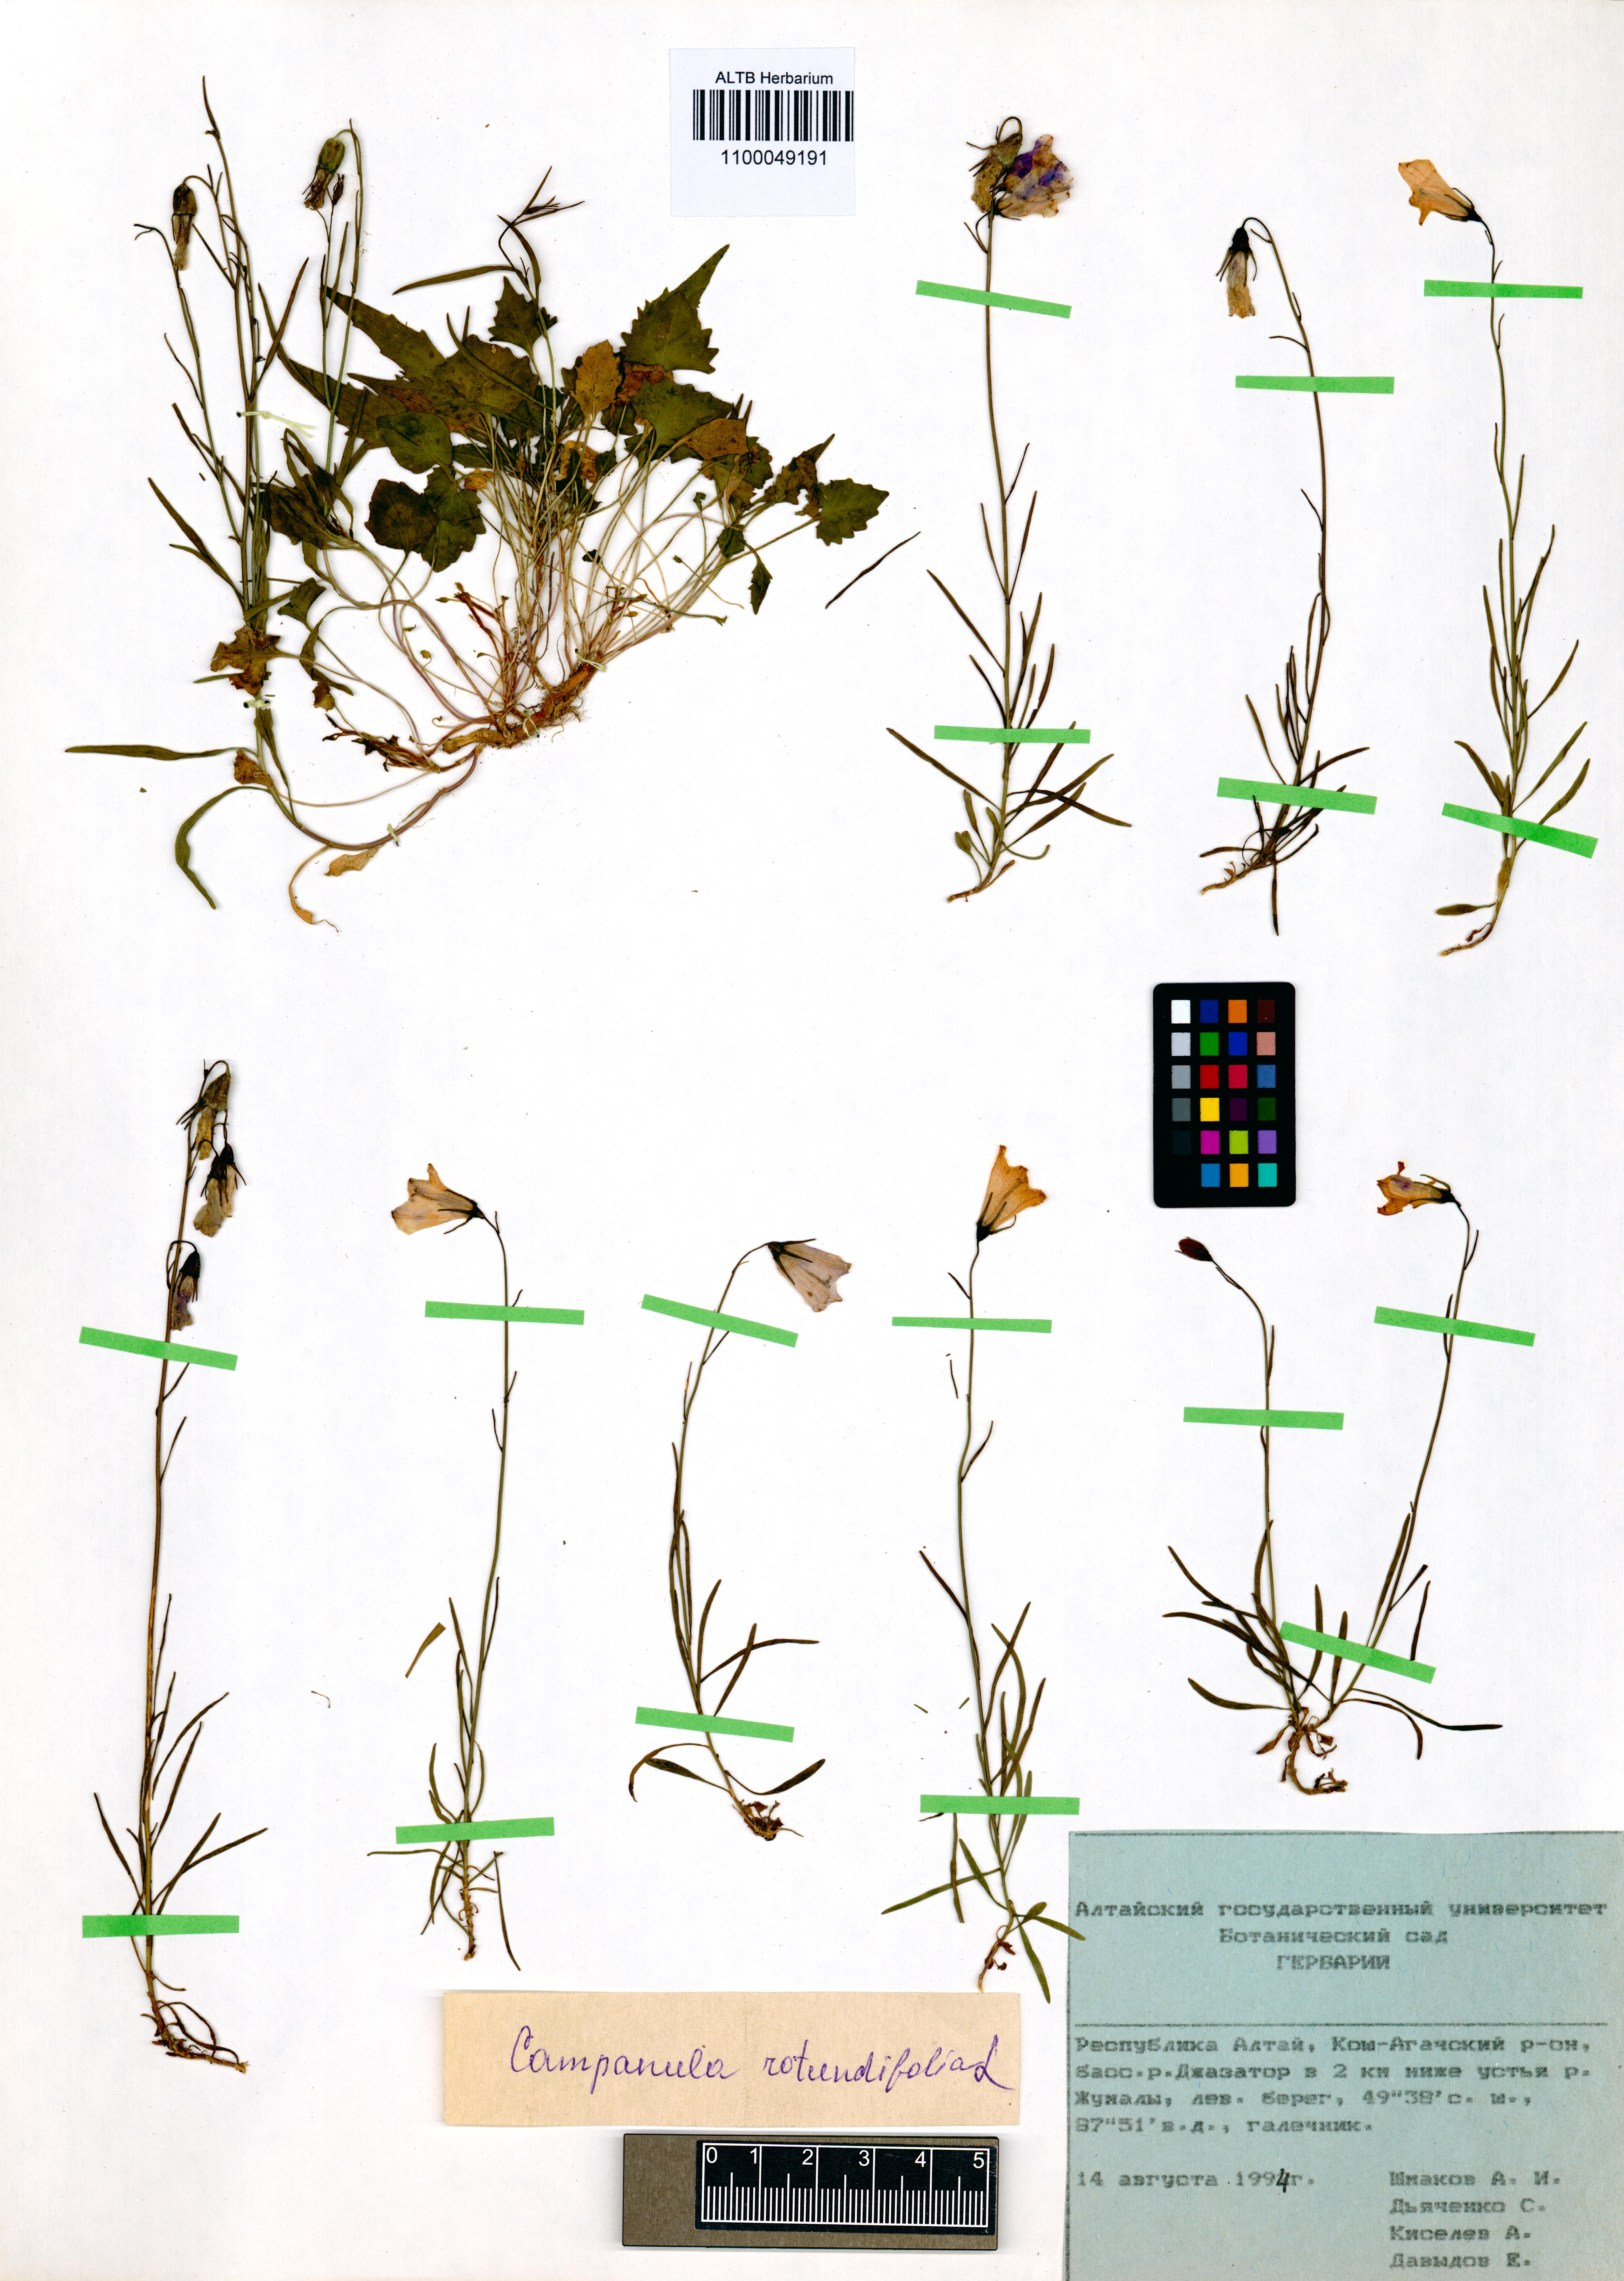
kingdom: Plantae
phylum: Tracheophyta
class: Magnoliopsida
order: Asterales
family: Campanulaceae
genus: Campanula
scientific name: Campanula rotundifolia
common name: Harebell
